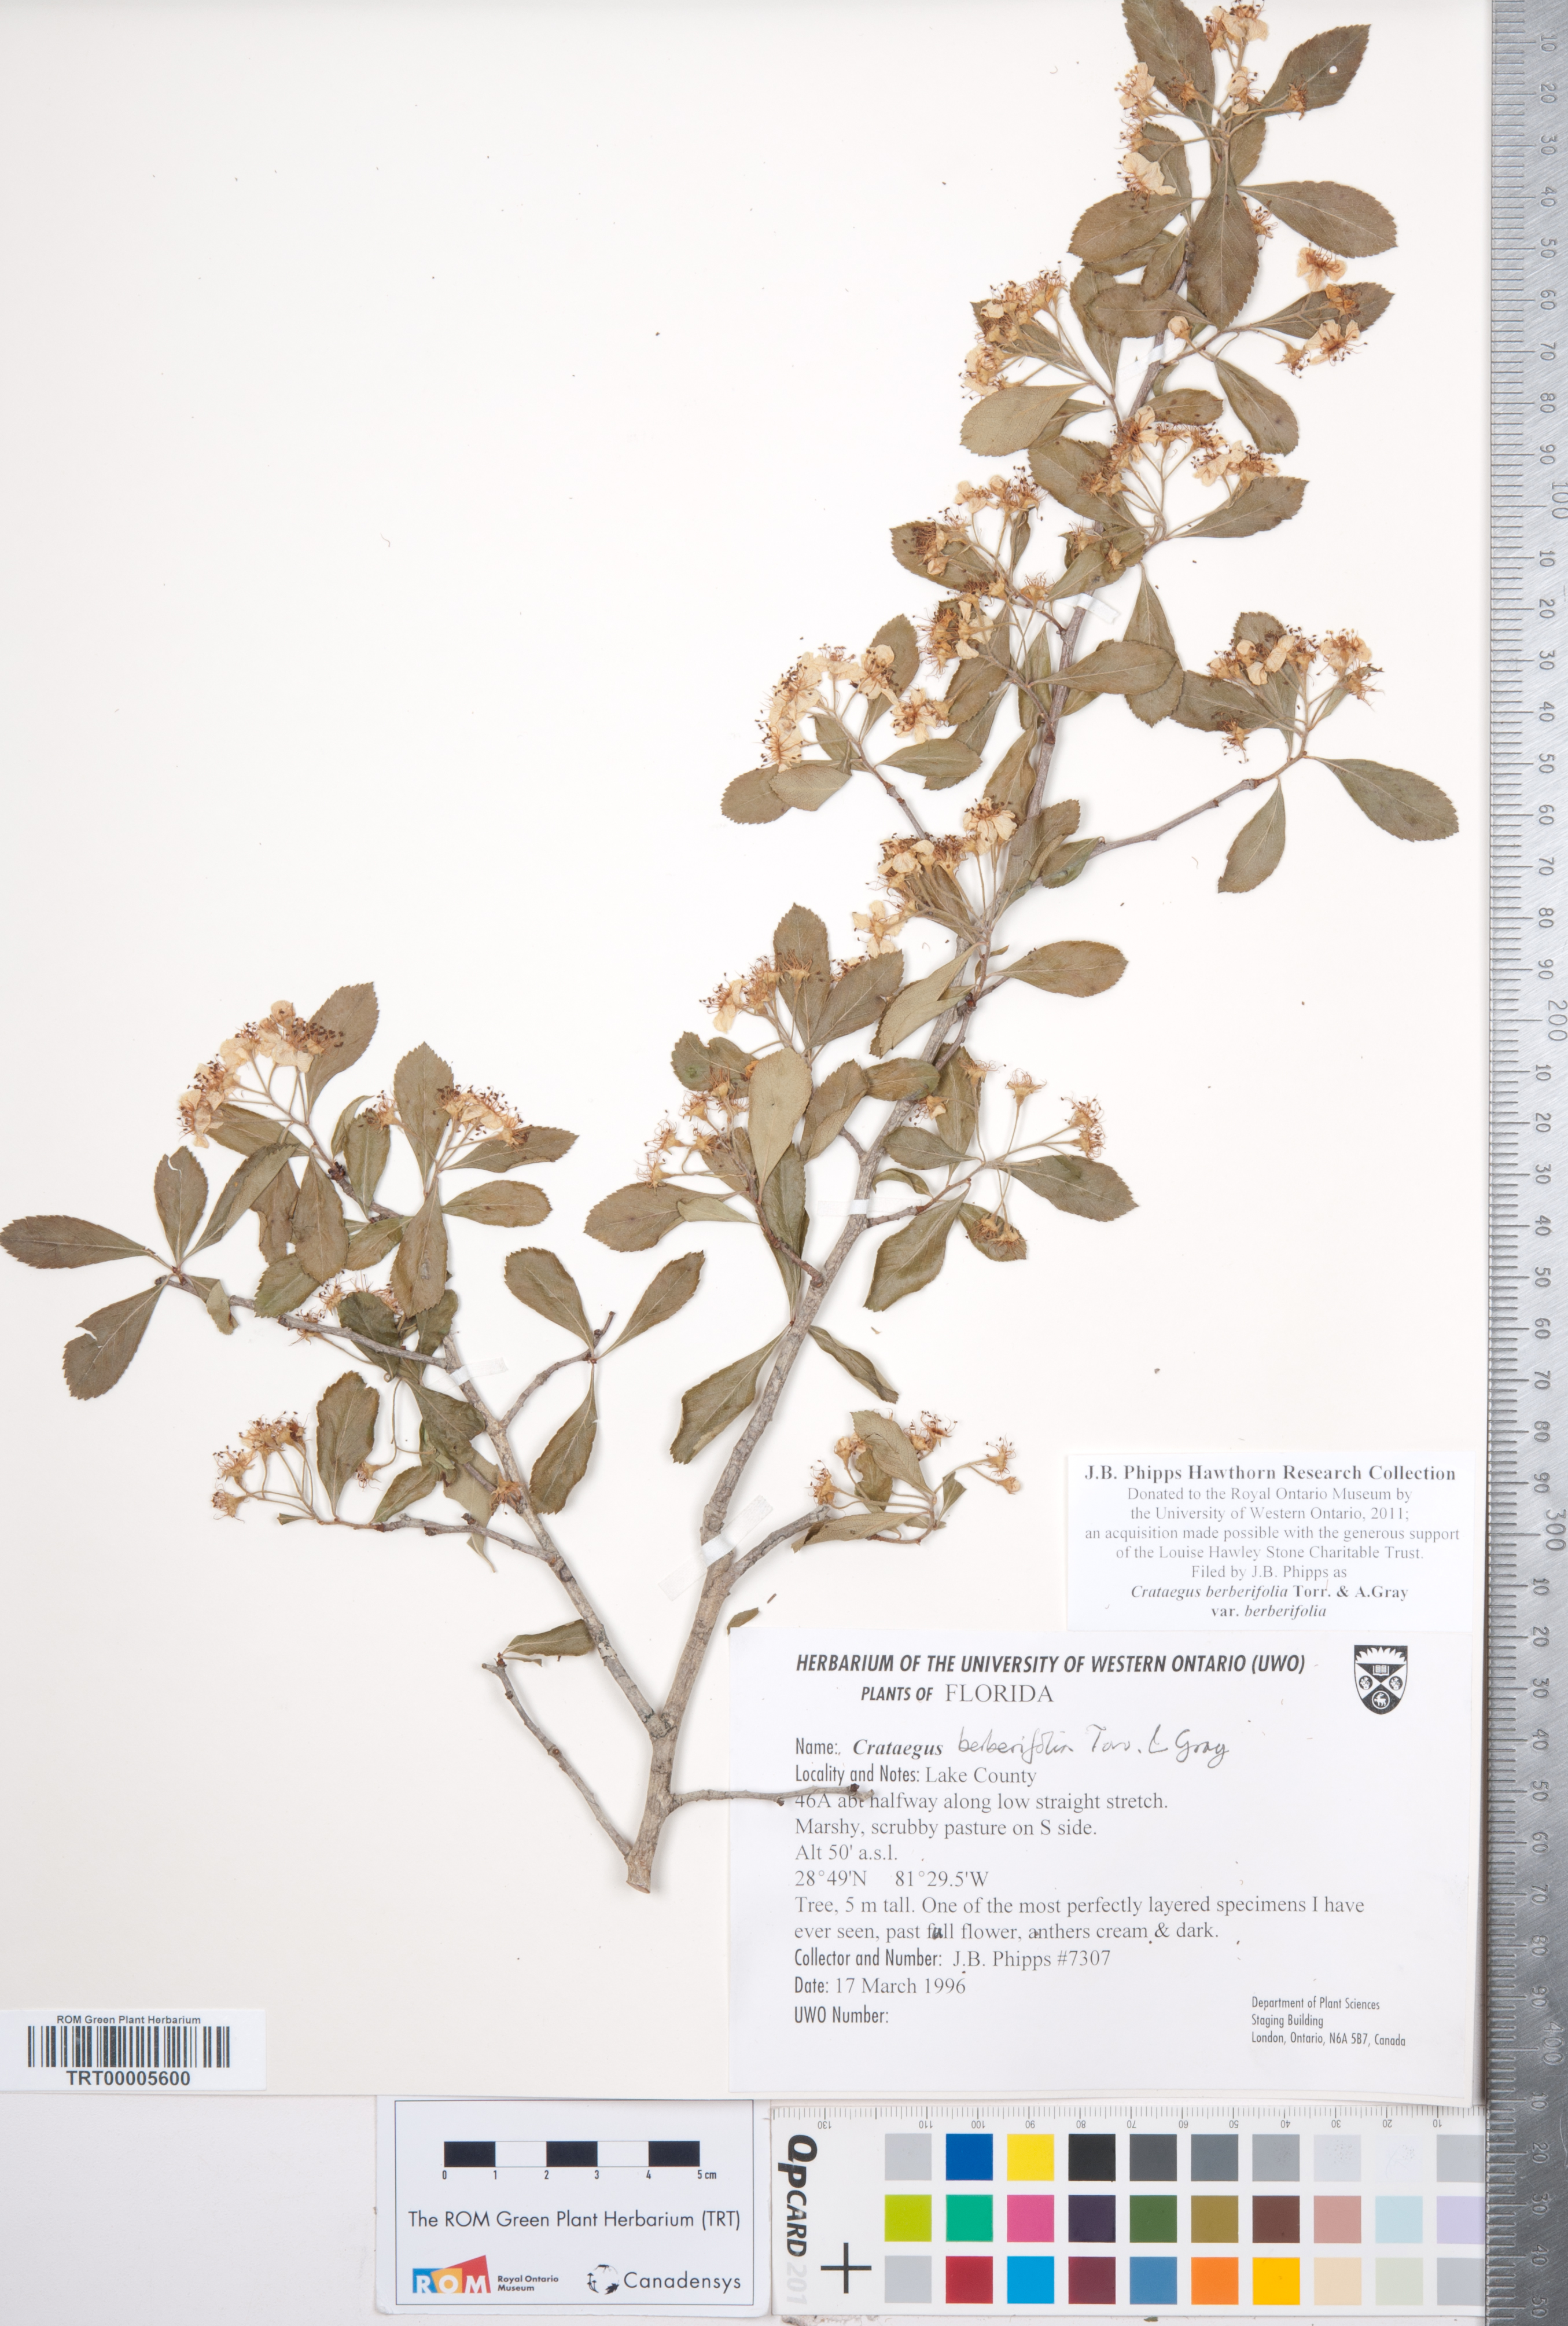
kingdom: Plantae
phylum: Tracheophyta
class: Magnoliopsida
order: Rosales
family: Rosaceae
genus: Crataegus
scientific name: Crataegus berberifolia
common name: Barberry hawthorn
